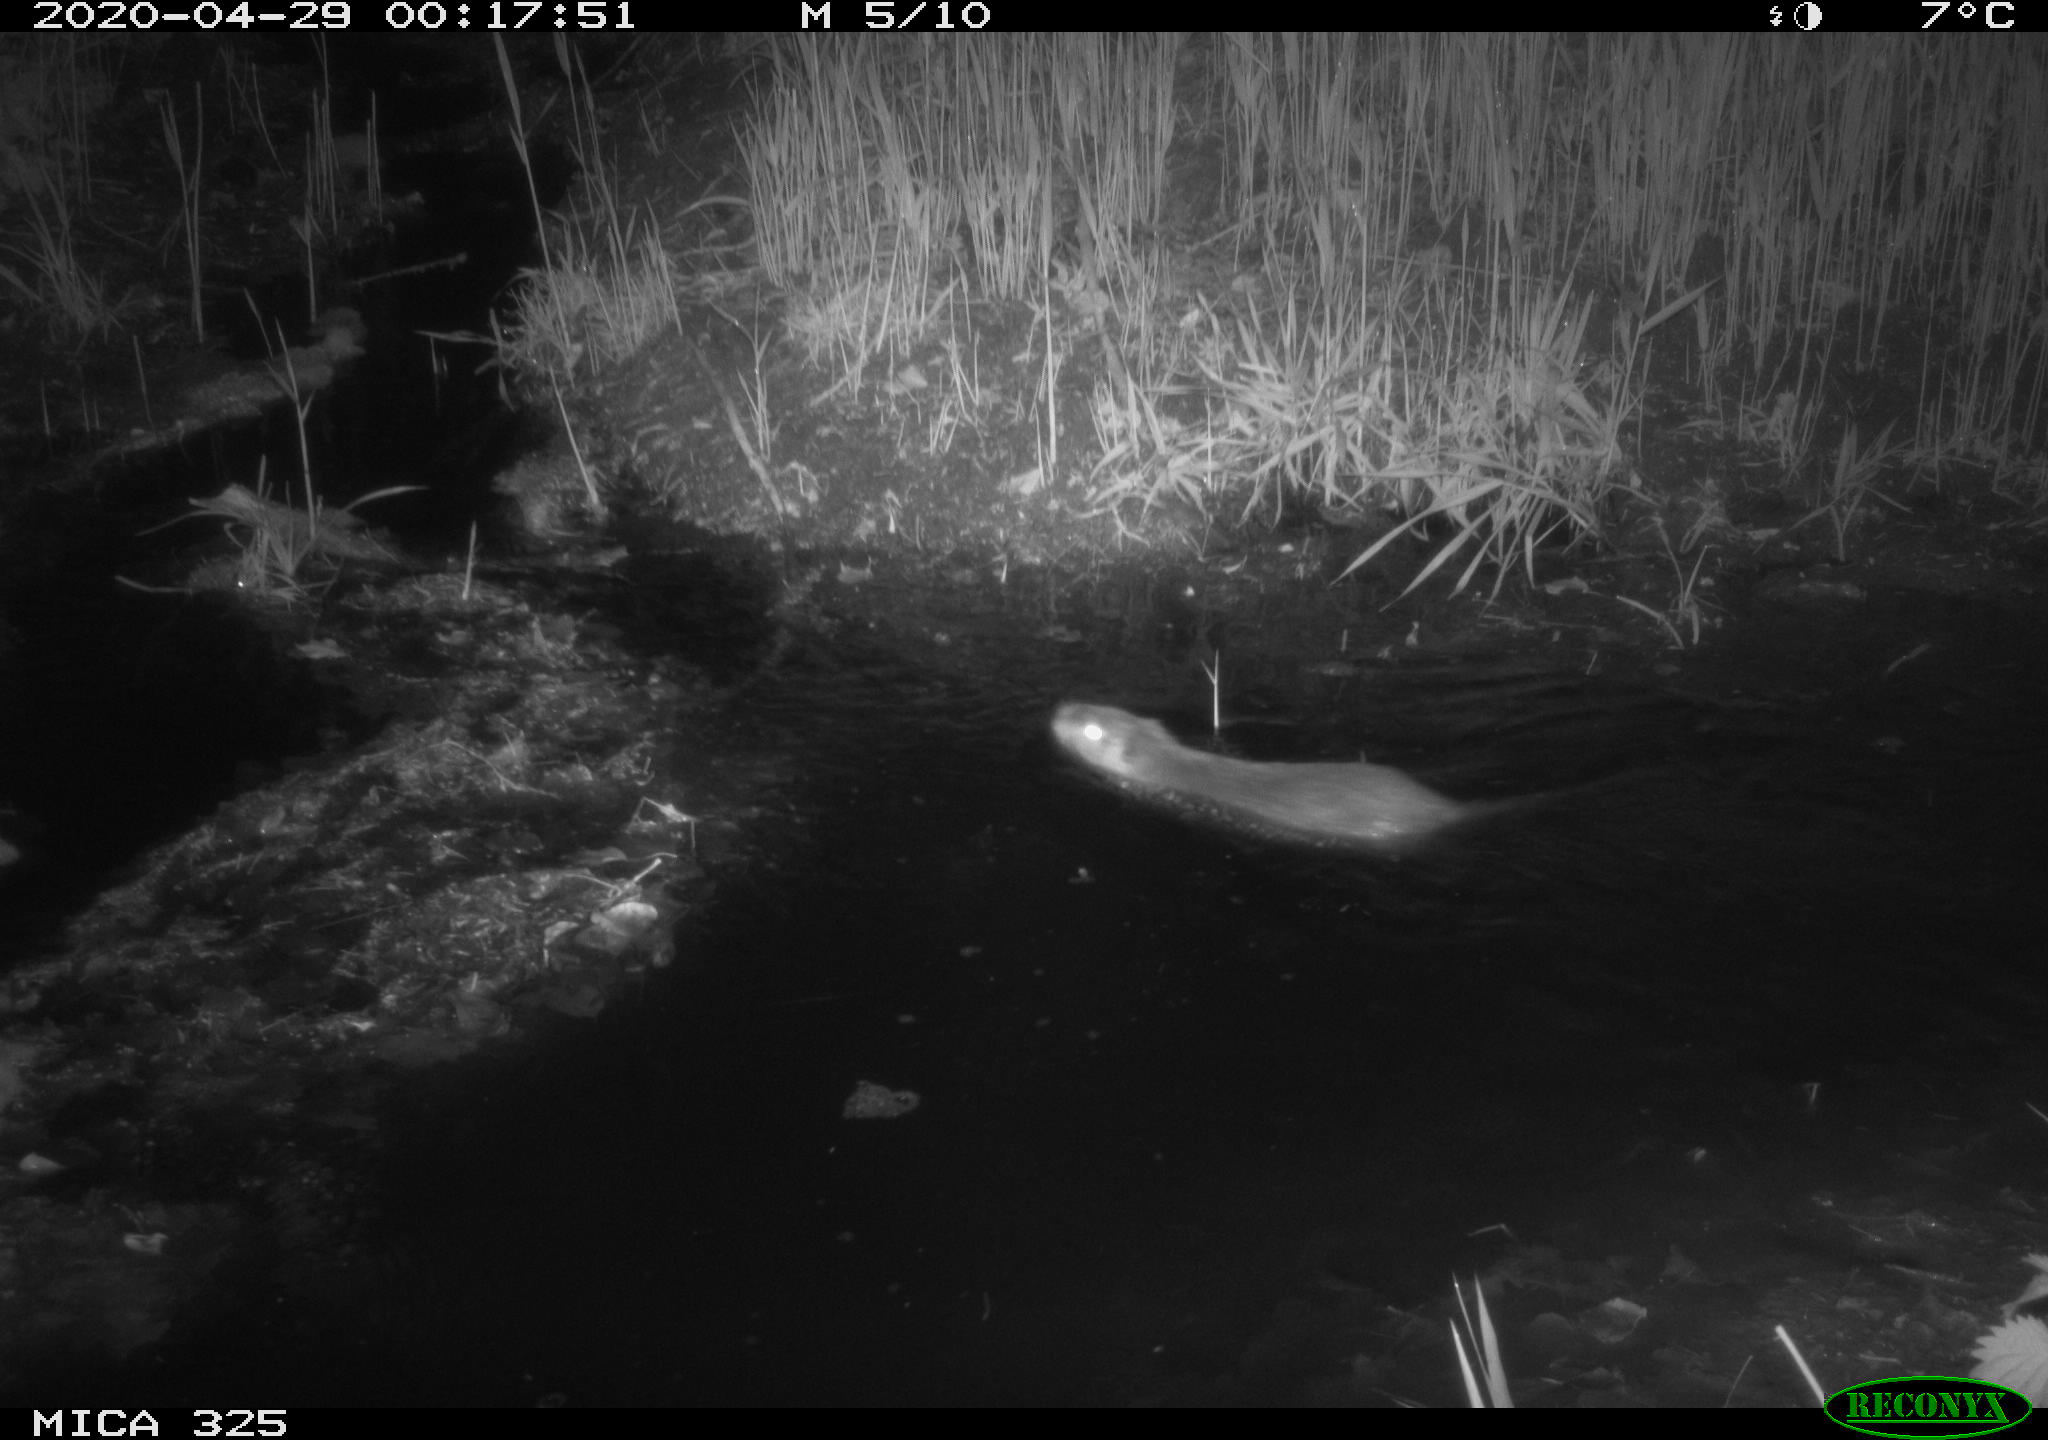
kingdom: Animalia
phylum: Chordata
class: Mammalia
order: Rodentia
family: Myocastoridae
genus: Myocastor
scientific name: Myocastor coypus
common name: Coypu
